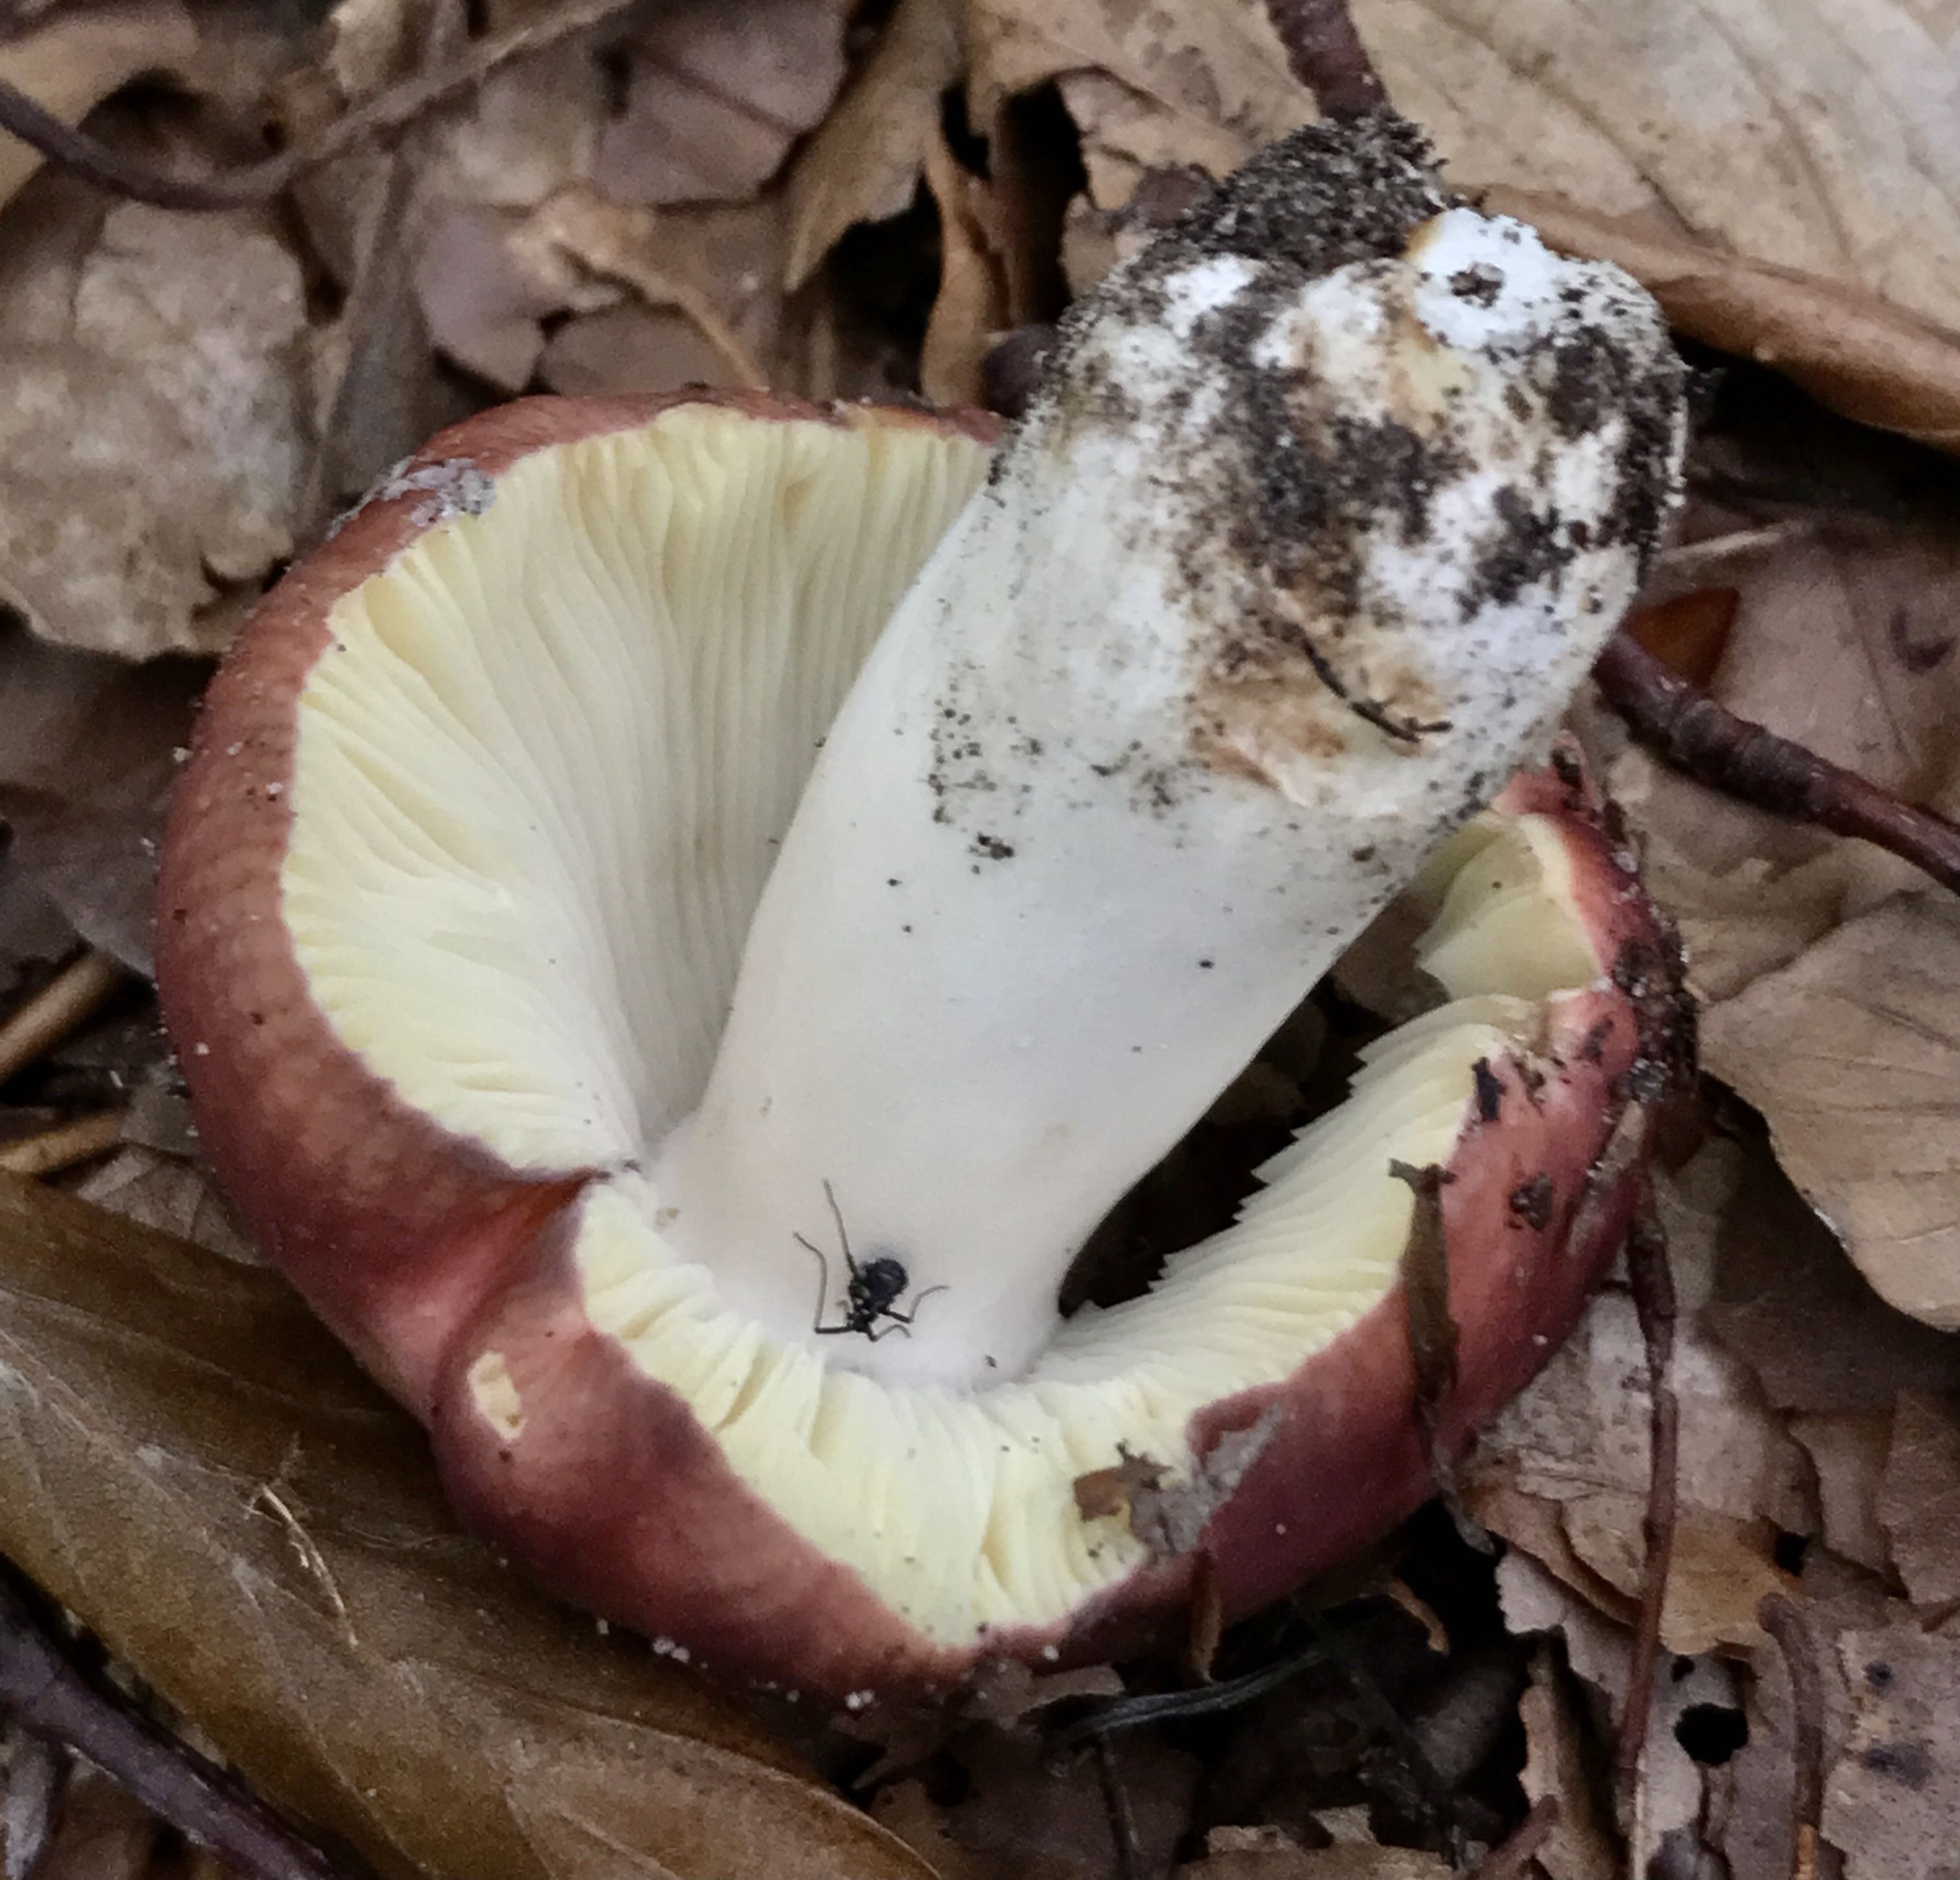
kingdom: Fungi
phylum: Basidiomycota
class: Agaricomycetes
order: Russulales
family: Russulaceae
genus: Russula
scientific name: Russula
